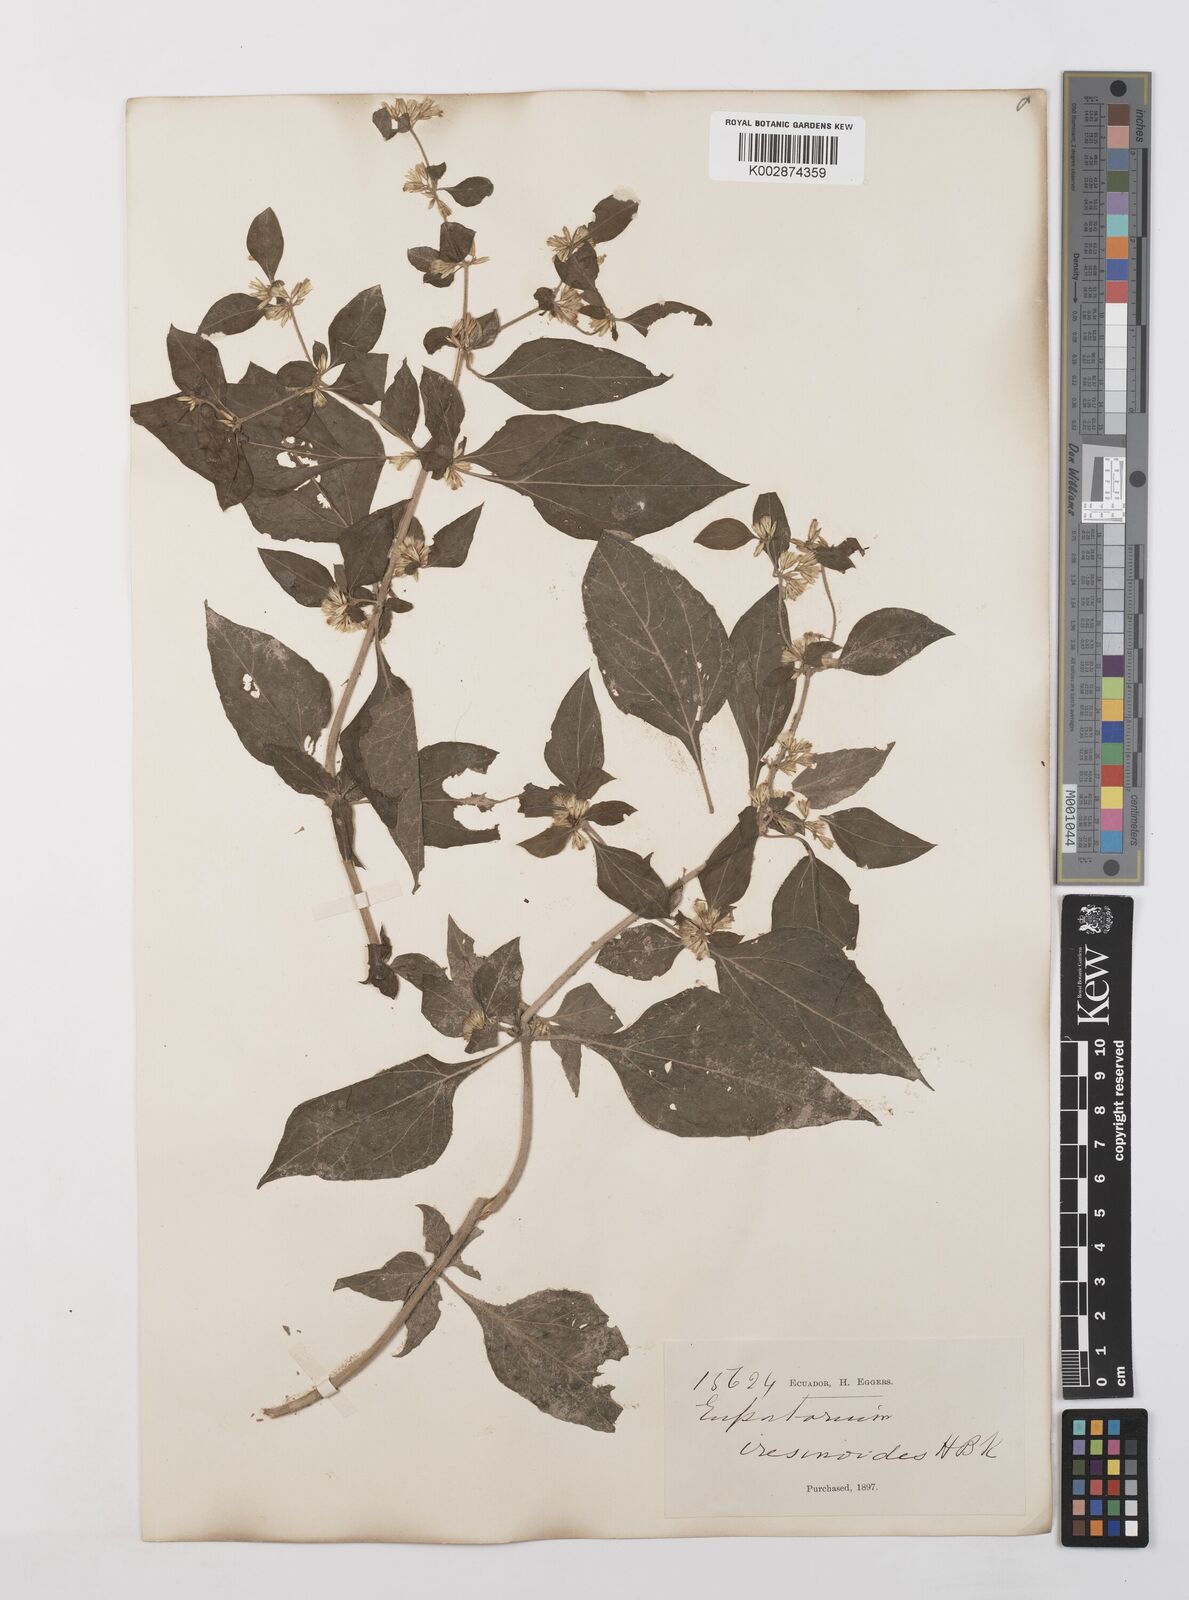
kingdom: Plantae
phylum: Tracheophyta
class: Magnoliopsida
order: Asterales
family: Asteraceae
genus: Condylidium
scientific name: Condylidium iresinoides
